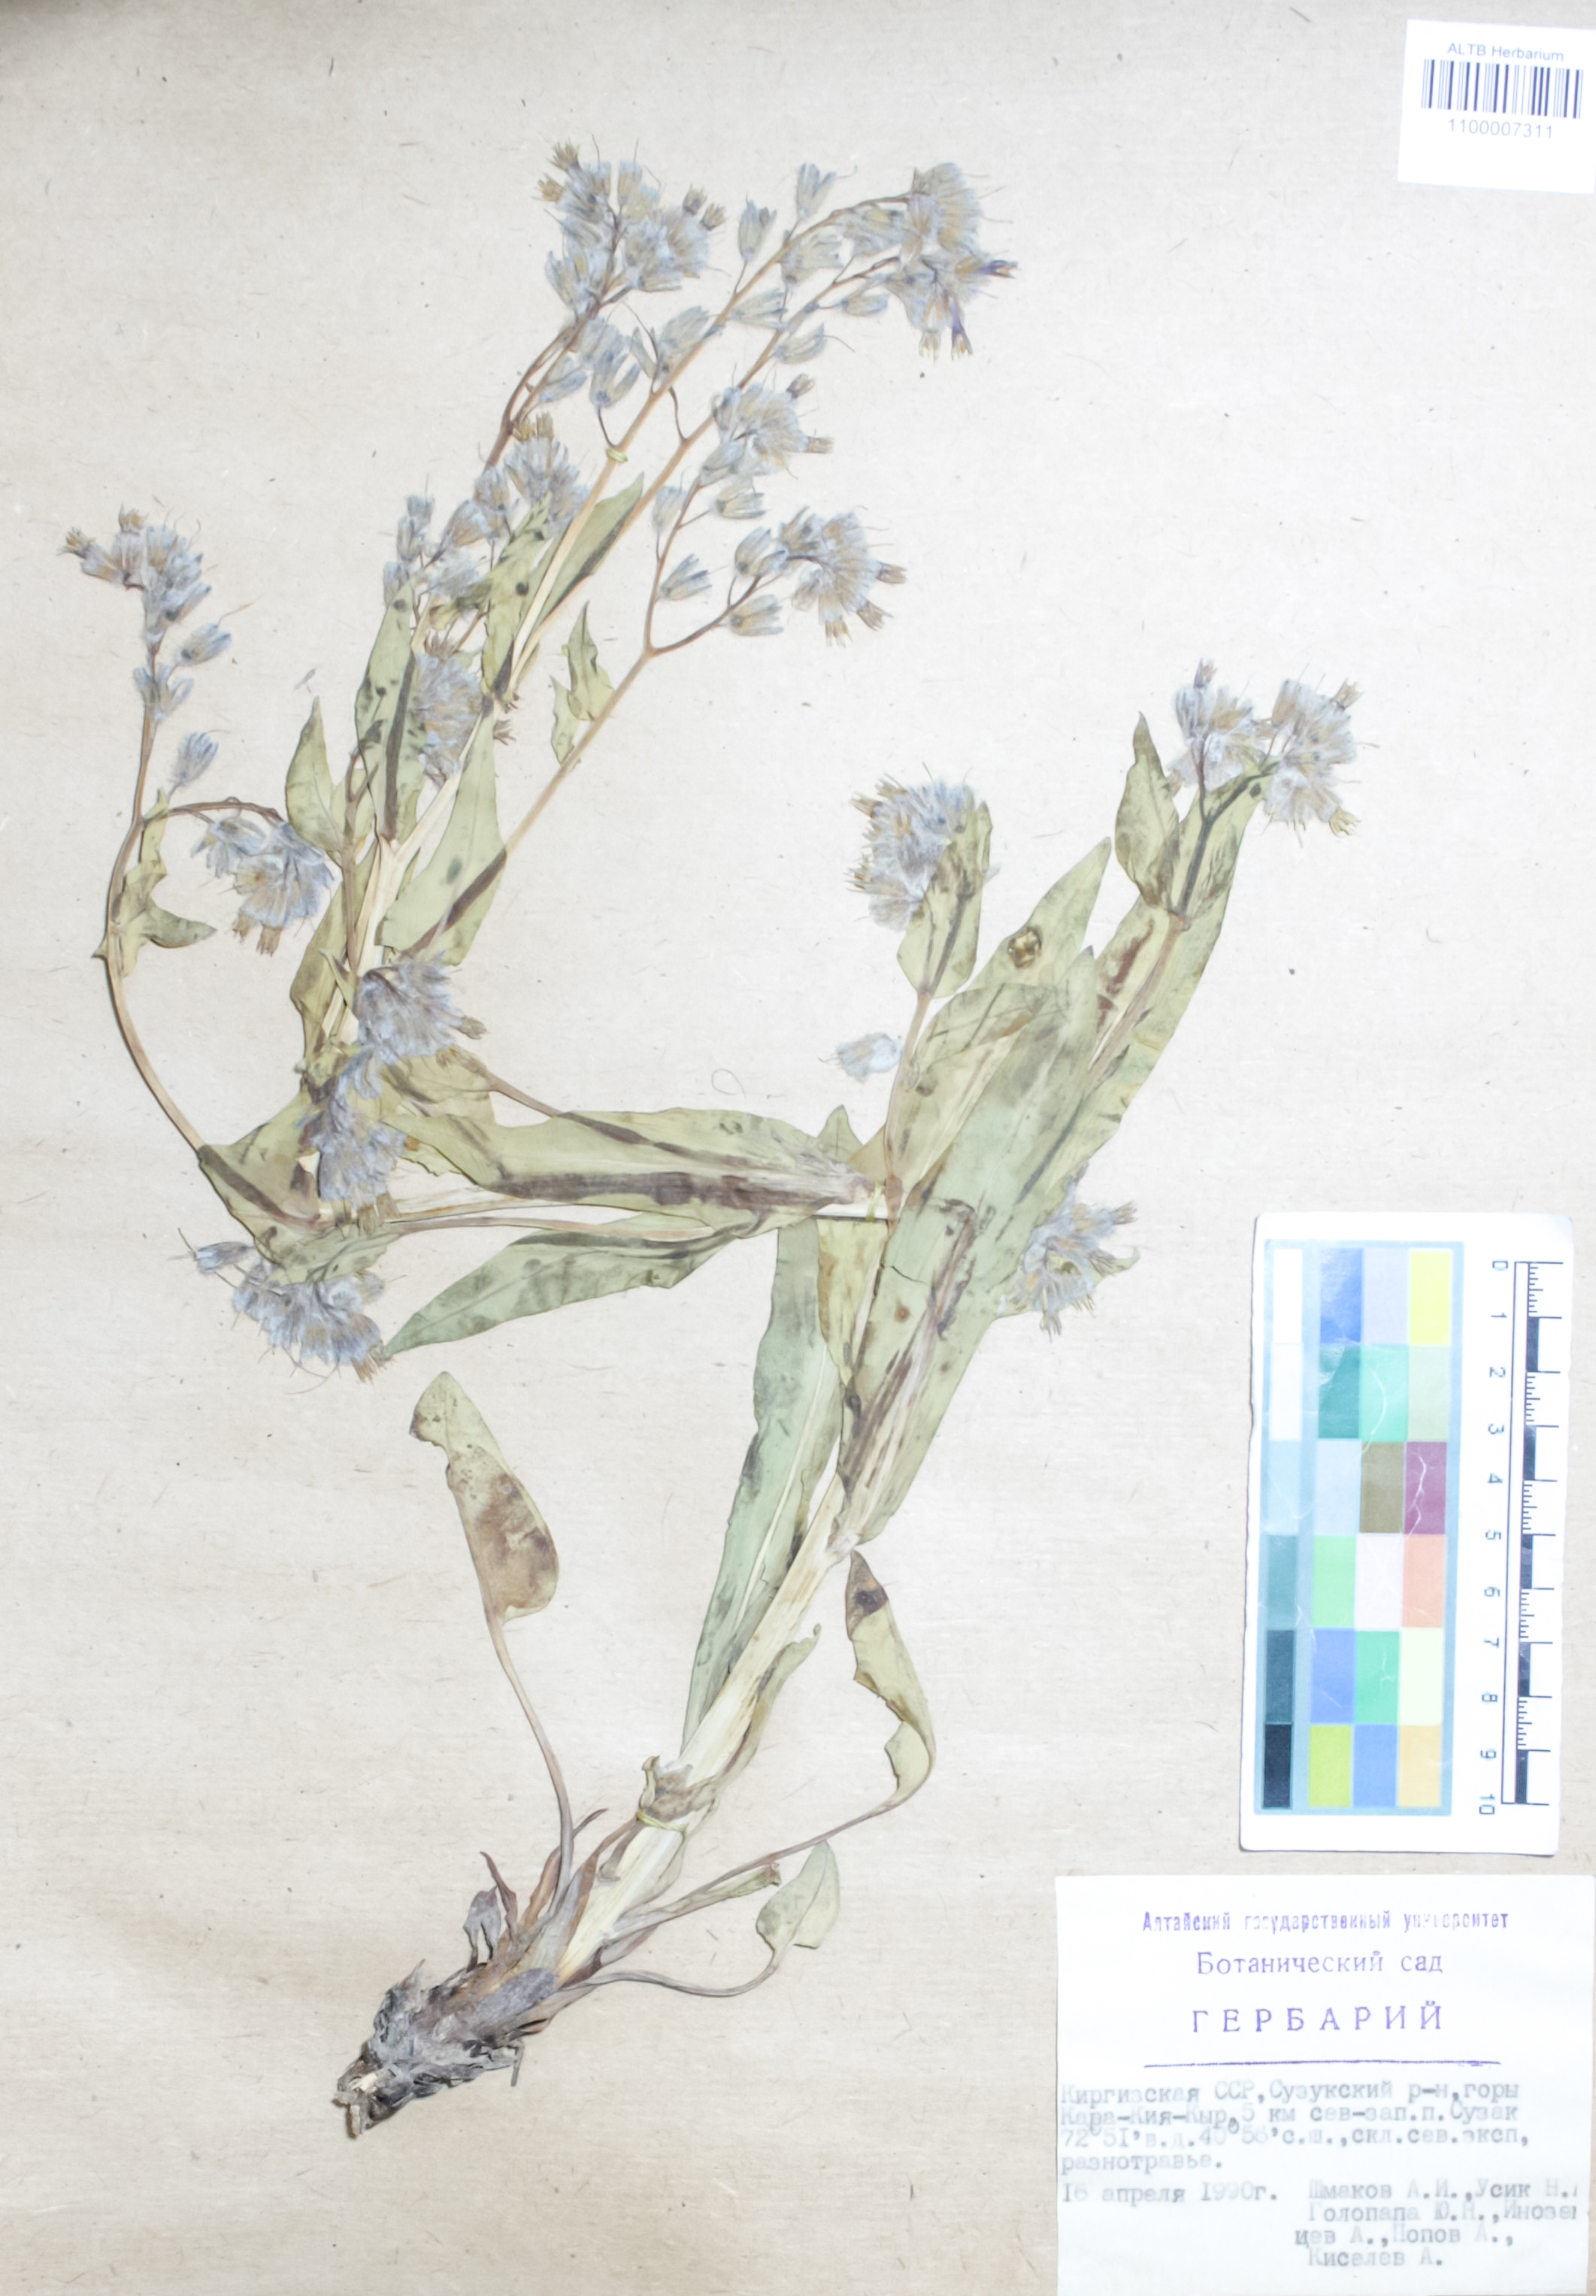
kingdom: Plantae
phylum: Tracheophyta
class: Magnoliopsida
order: Asterales
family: Asteraceae
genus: Achillea
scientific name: Achillea impatiens
